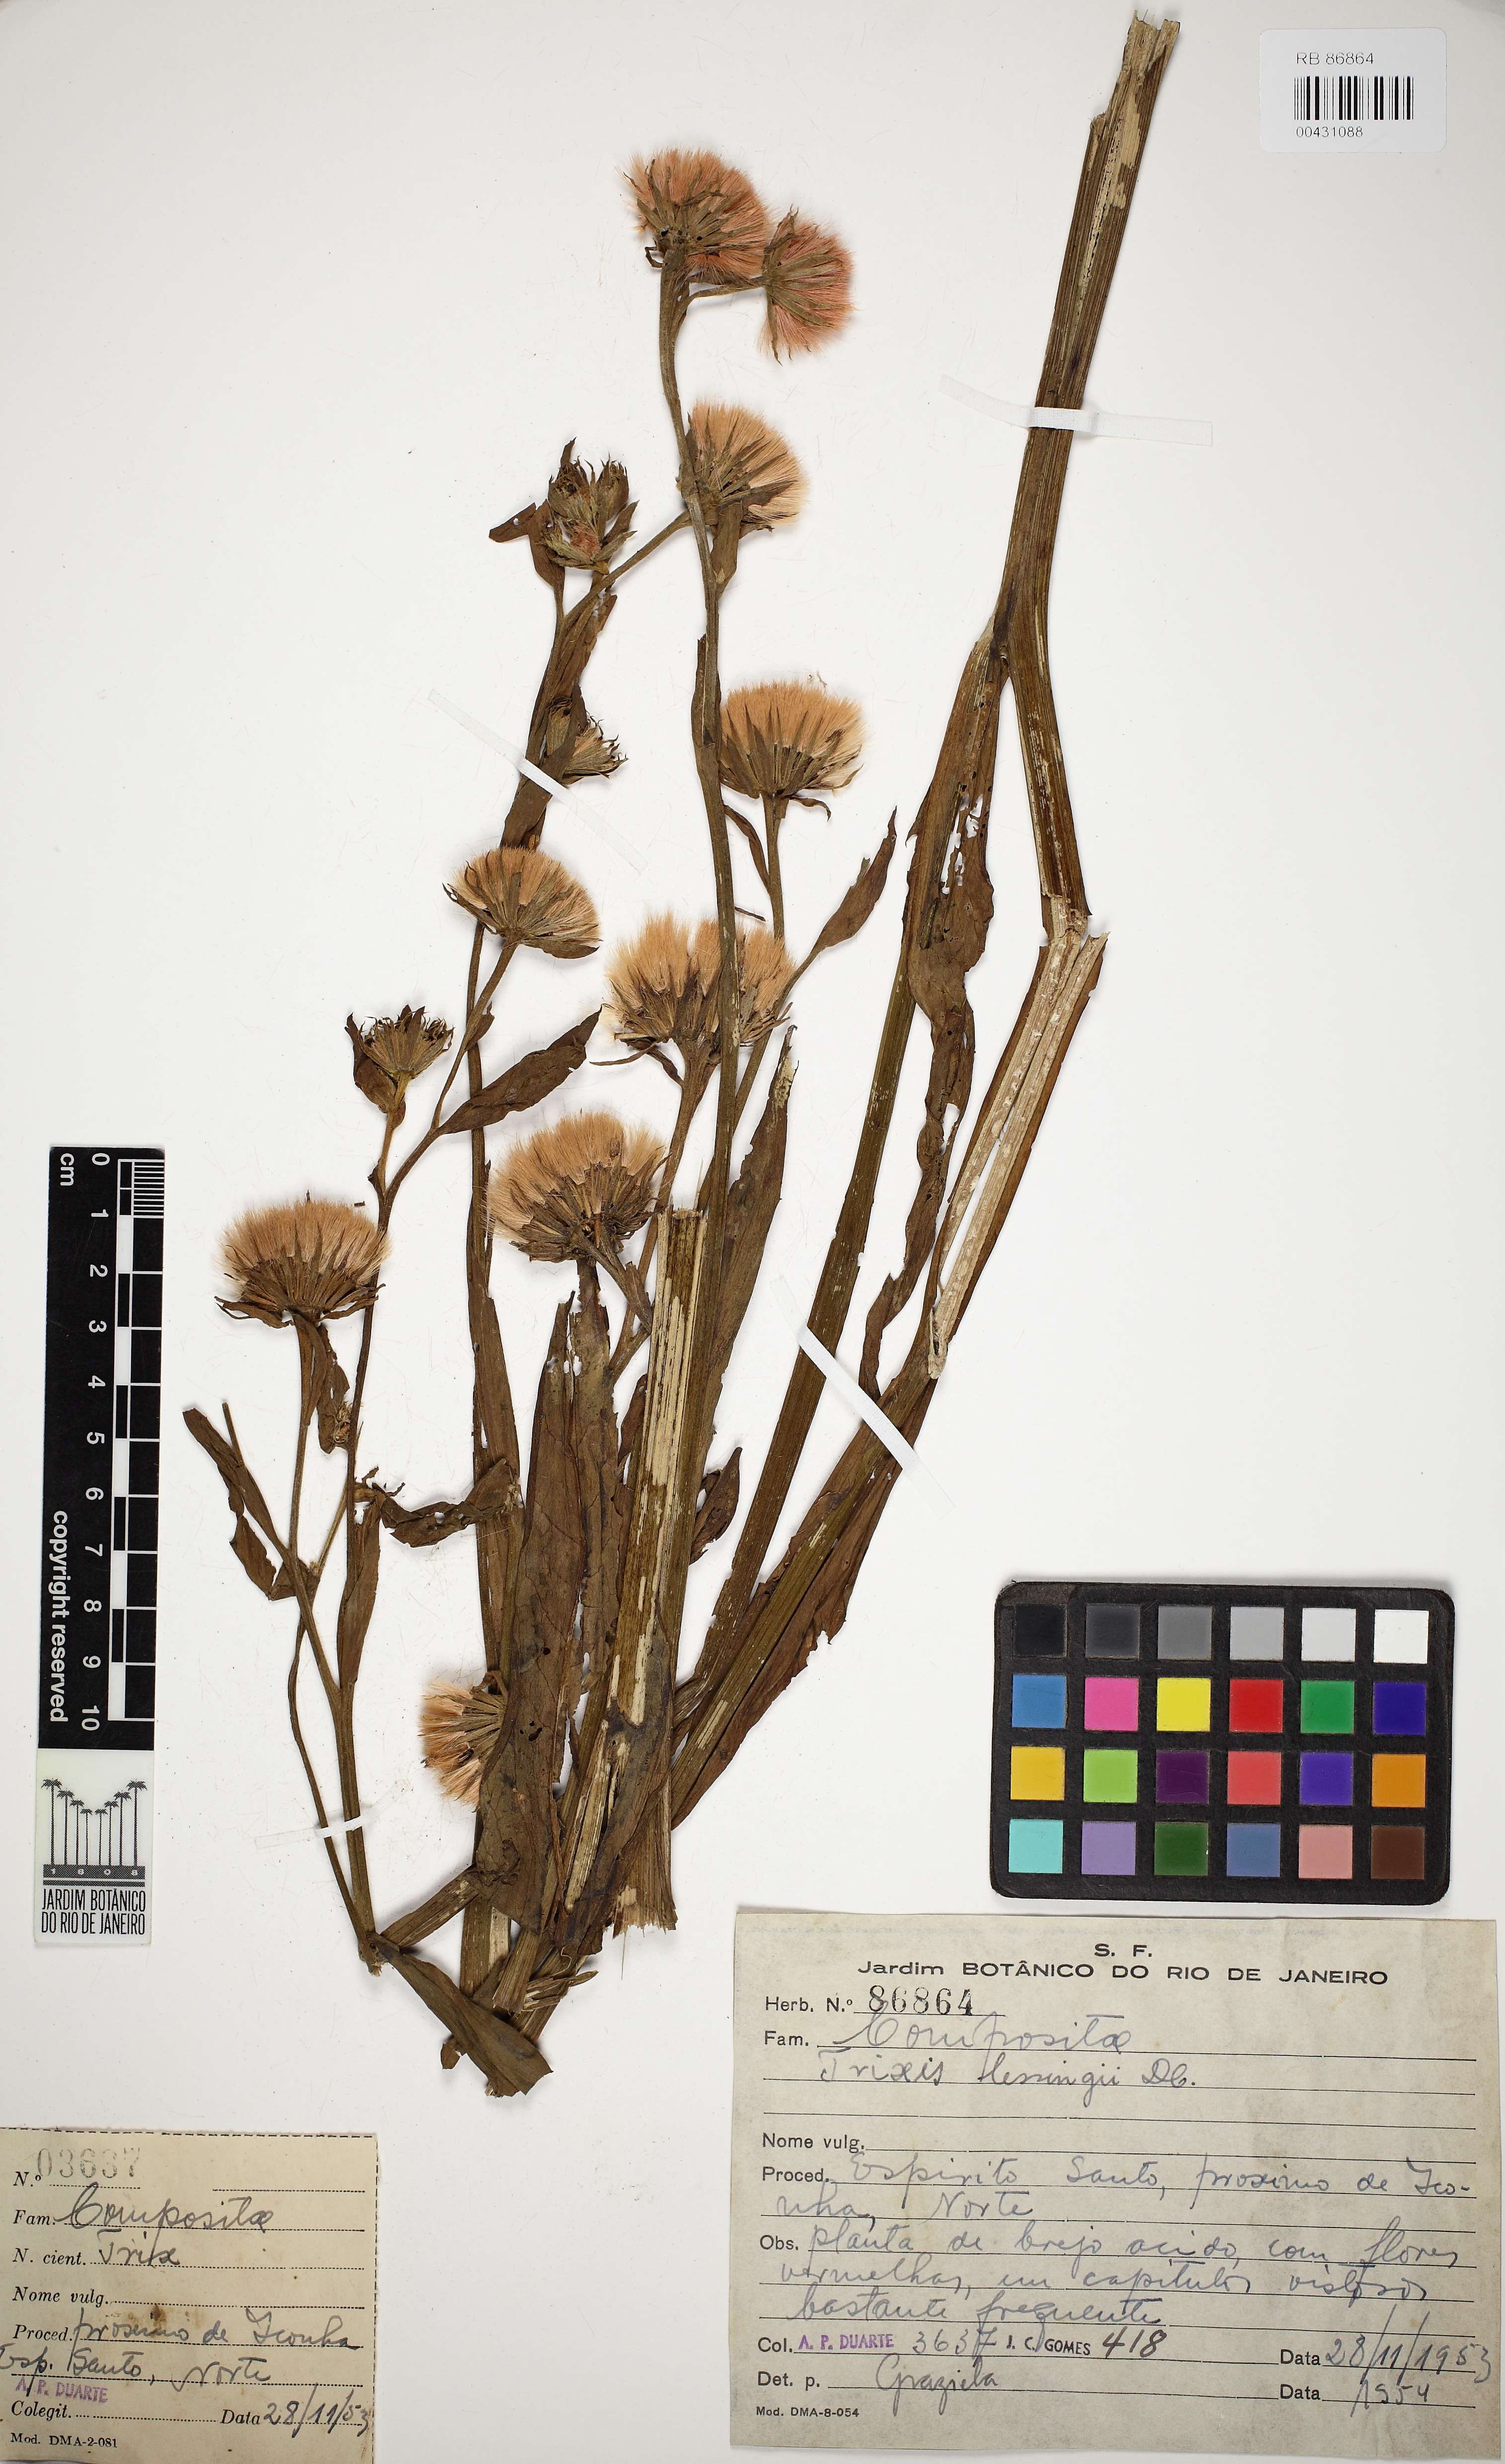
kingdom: Plantae
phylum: Tracheophyta
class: Magnoliopsida
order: Asterales
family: Asteraceae
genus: Trixis
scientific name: Trixis lessingii
